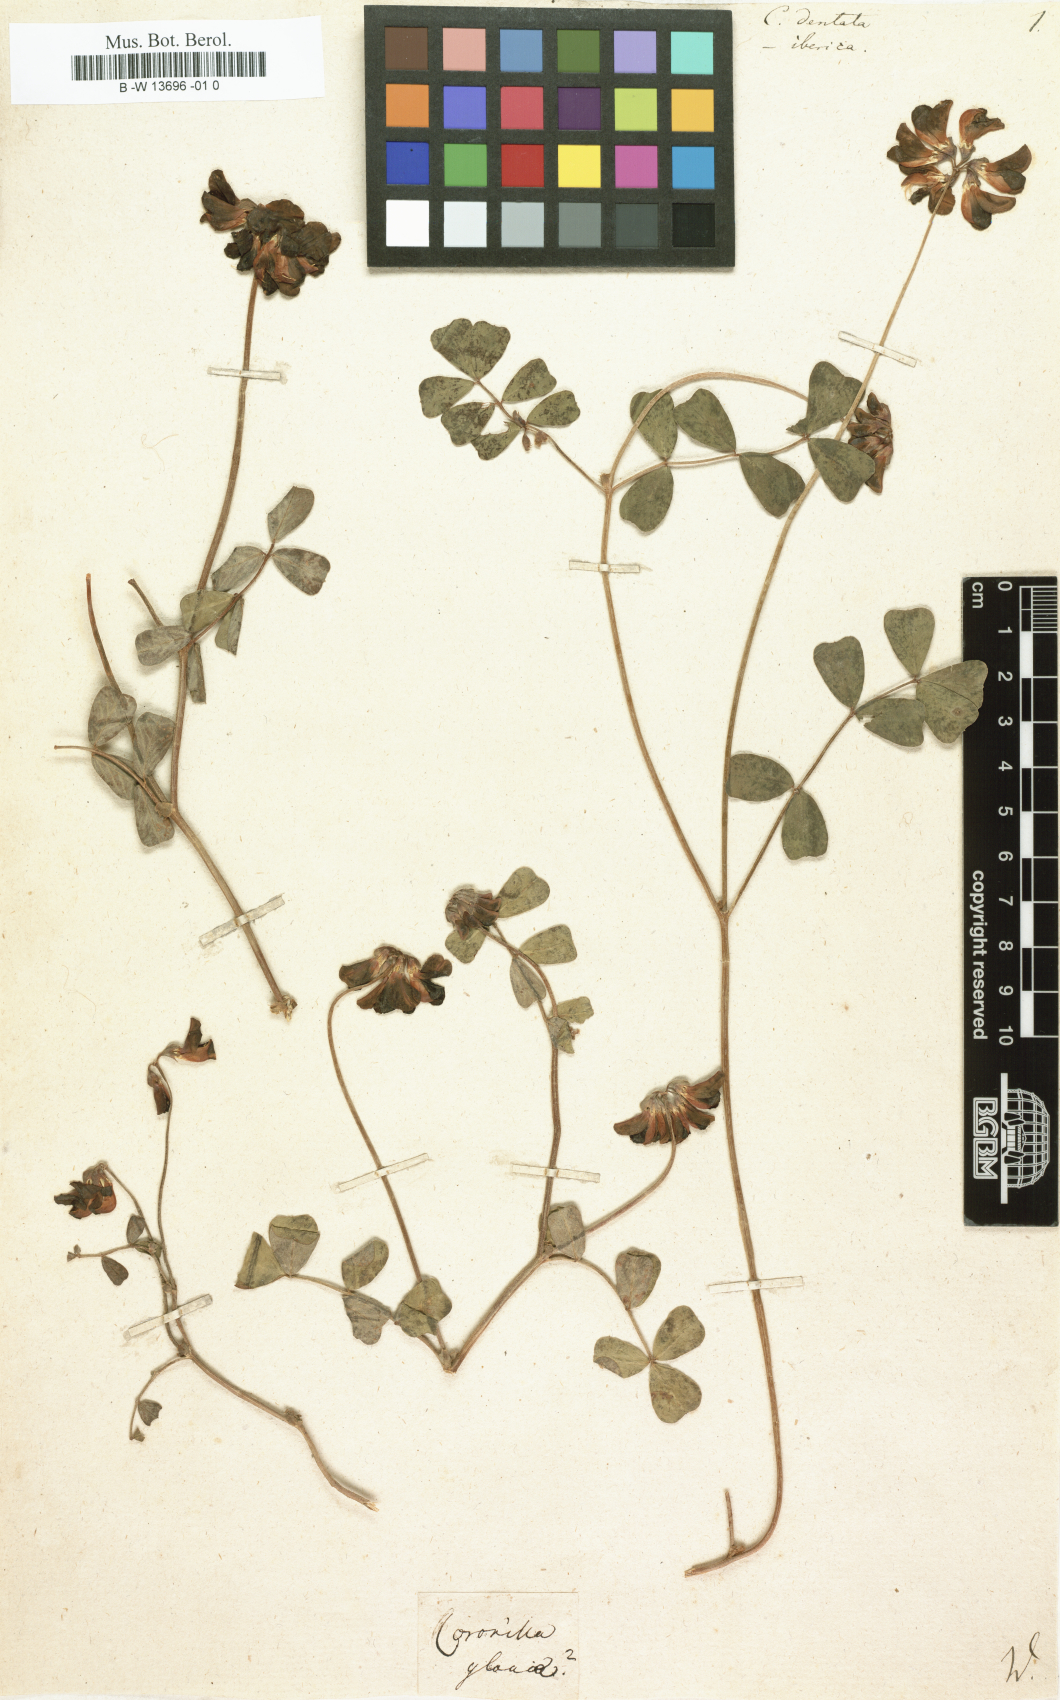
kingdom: Plantae
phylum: Tracheophyta
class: Magnoliopsida
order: Fabales
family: Fabaceae
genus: Coronilla
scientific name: Coronilla
